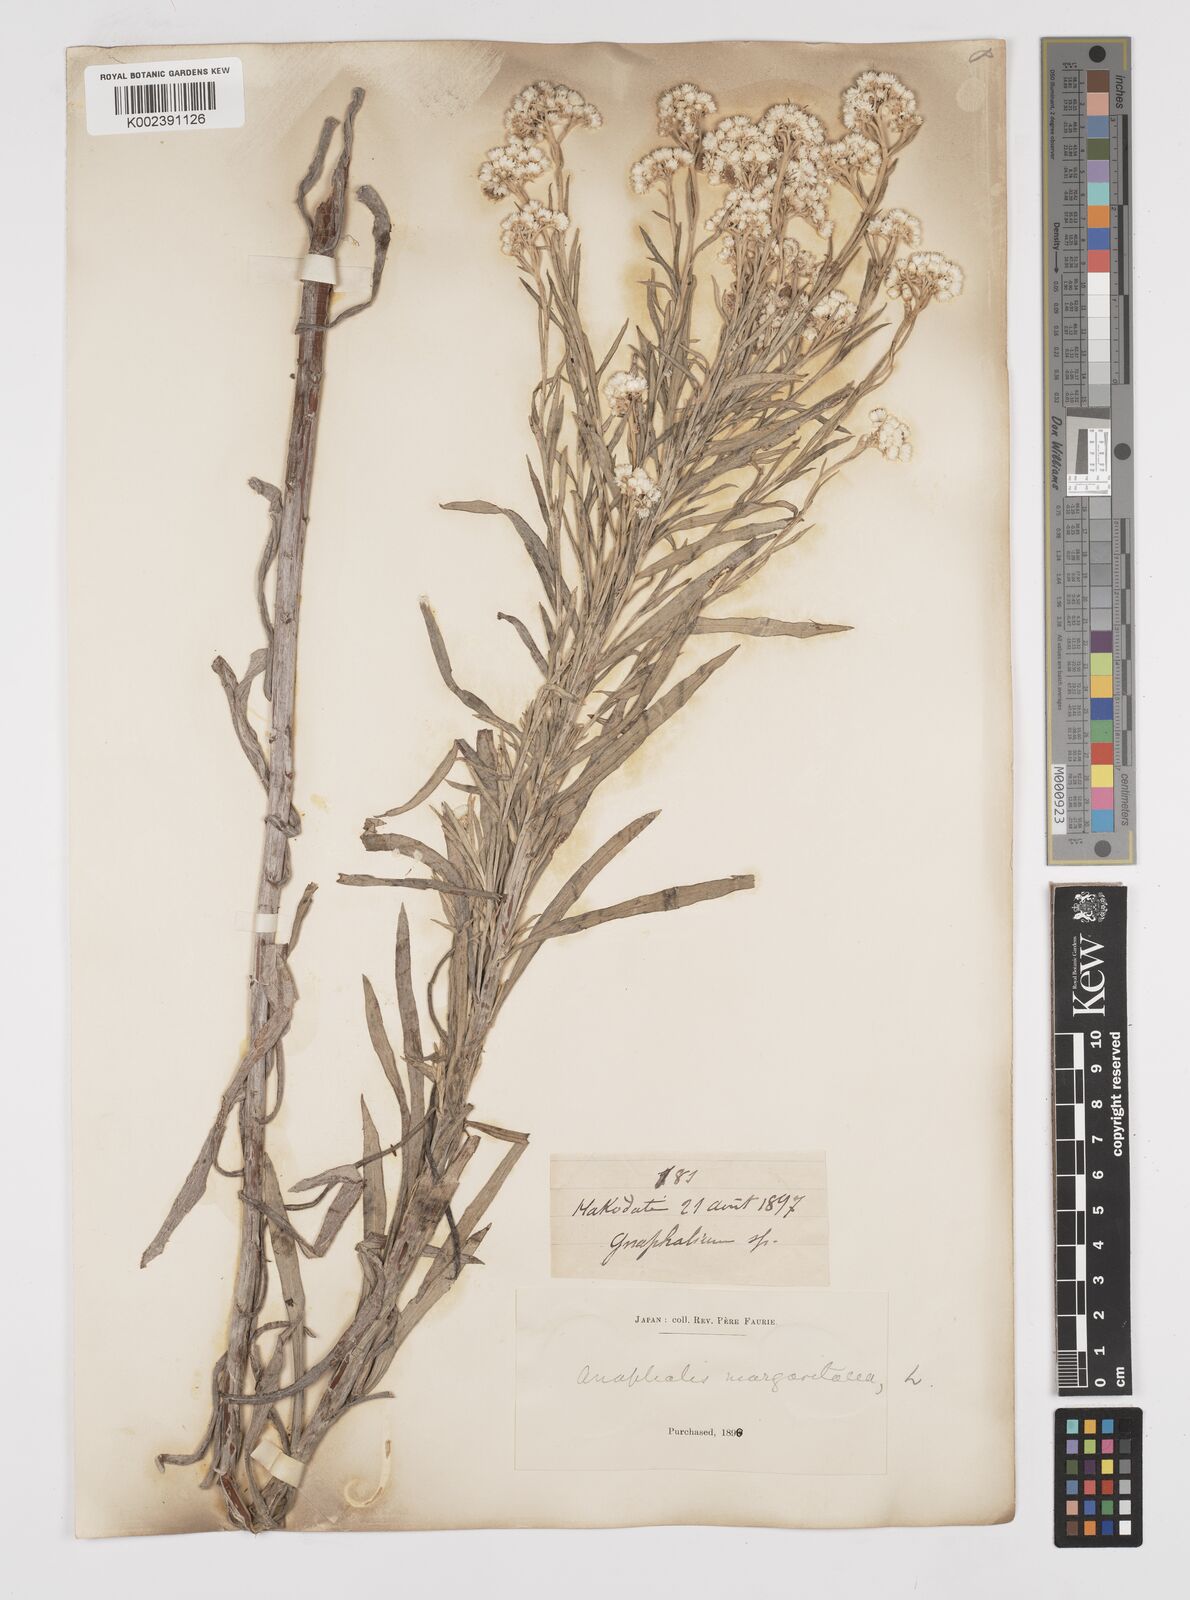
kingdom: Plantae
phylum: Tracheophyta
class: Magnoliopsida
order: Asterales
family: Asteraceae
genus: Anaphalis
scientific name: Anaphalis margaritacea
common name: Pearly everlasting
